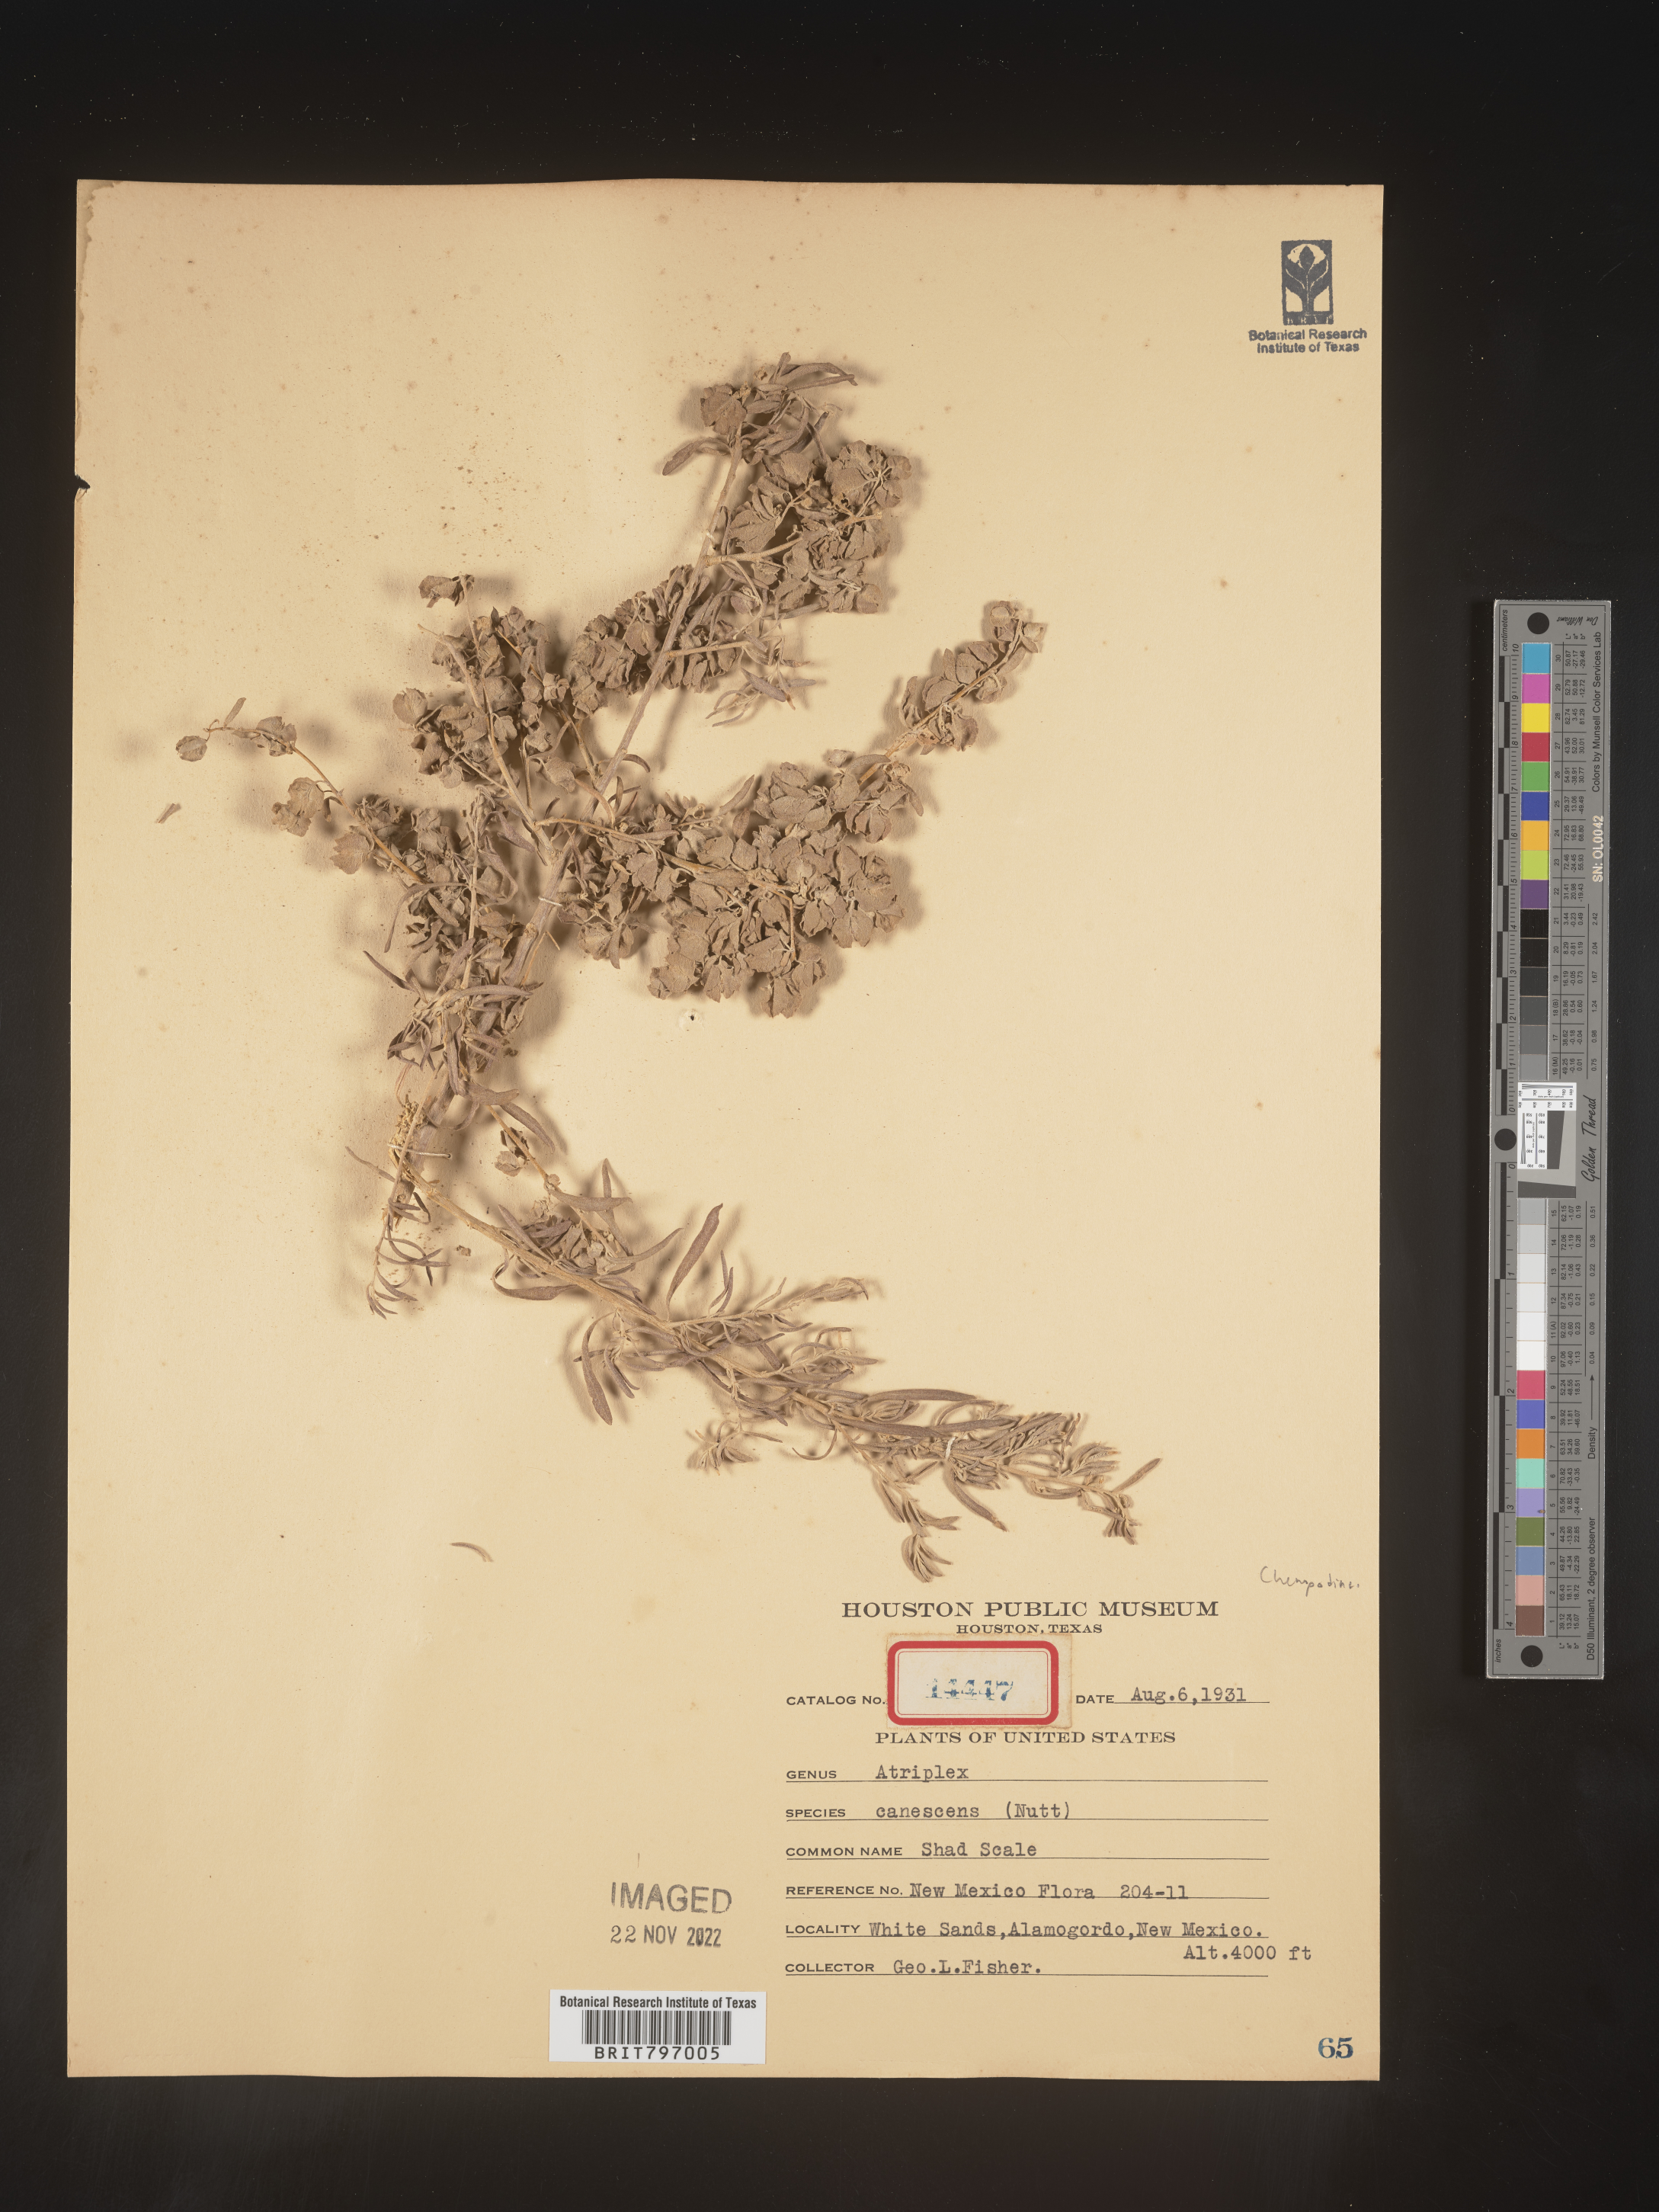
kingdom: Plantae
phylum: Tracheophyta
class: Magnoliopsida
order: Caryophyllales
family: Amaranthaceae
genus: Atriplex
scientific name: Atriplex canescens
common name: Four-wing saltbush
